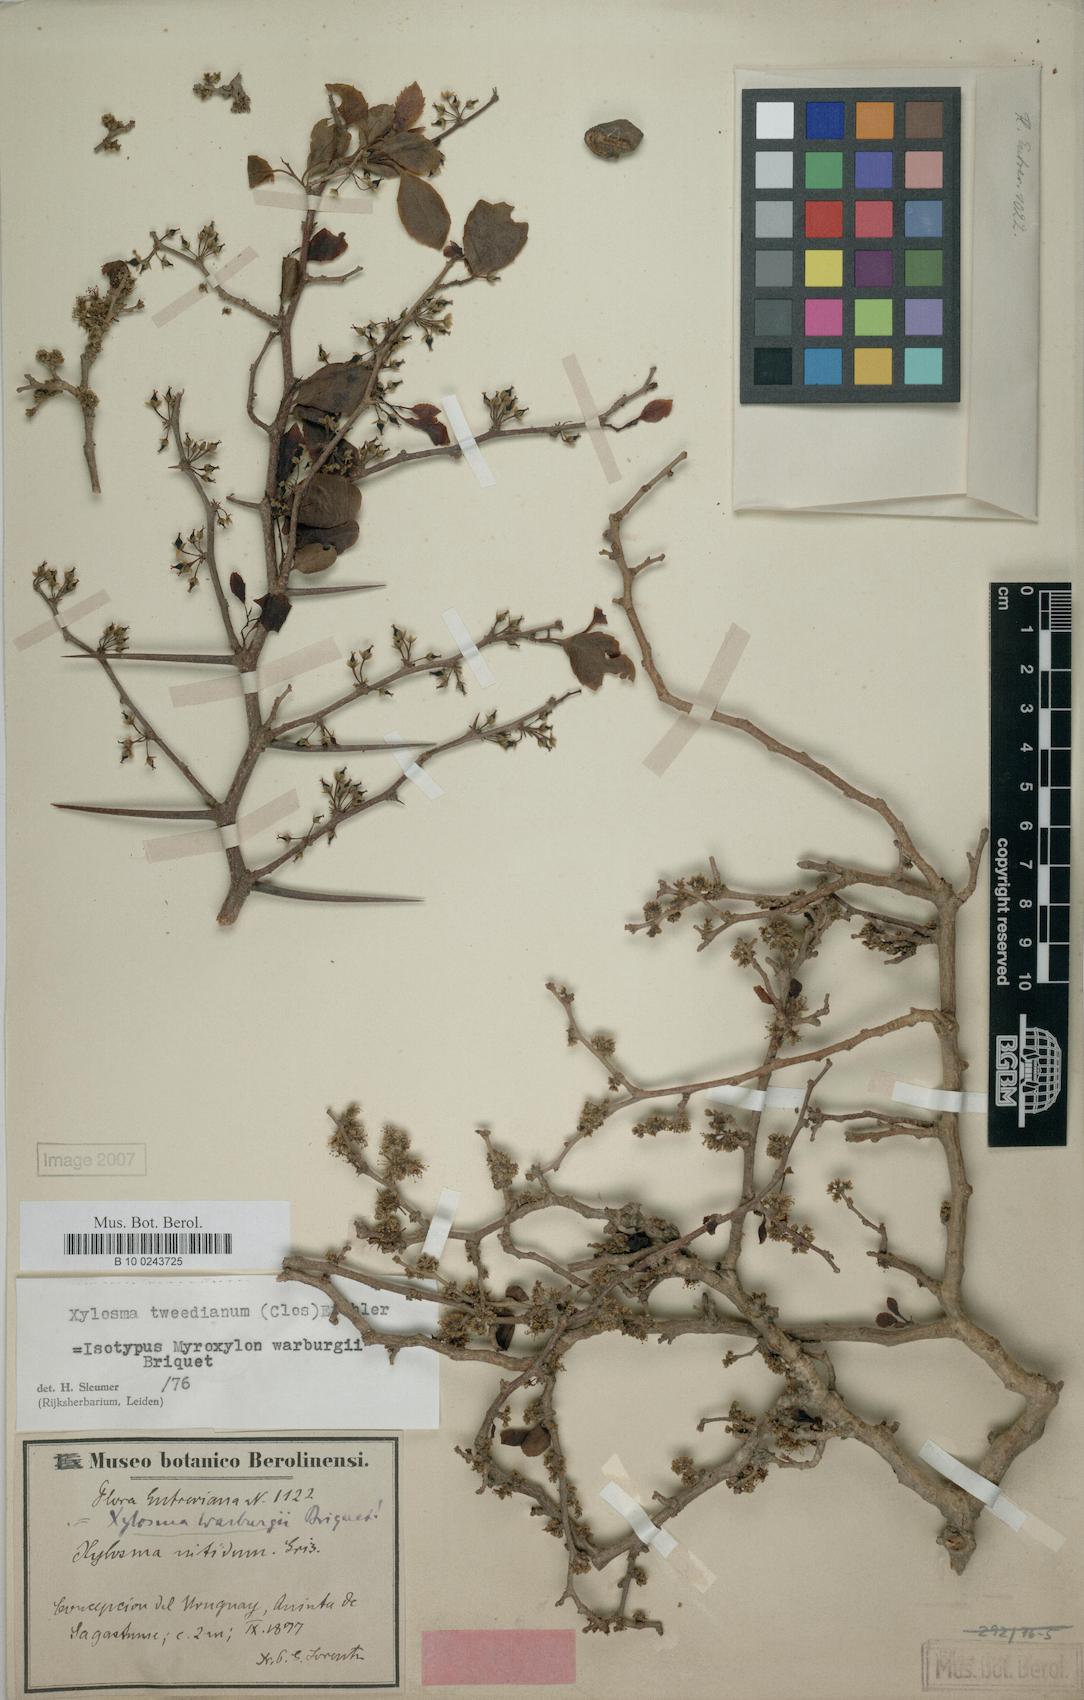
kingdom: Plantae
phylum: Tracheophyta
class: Magnoliopsida
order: Malpighiales
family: Salicaceae
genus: Xylosma
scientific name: Xylosma tweediana
